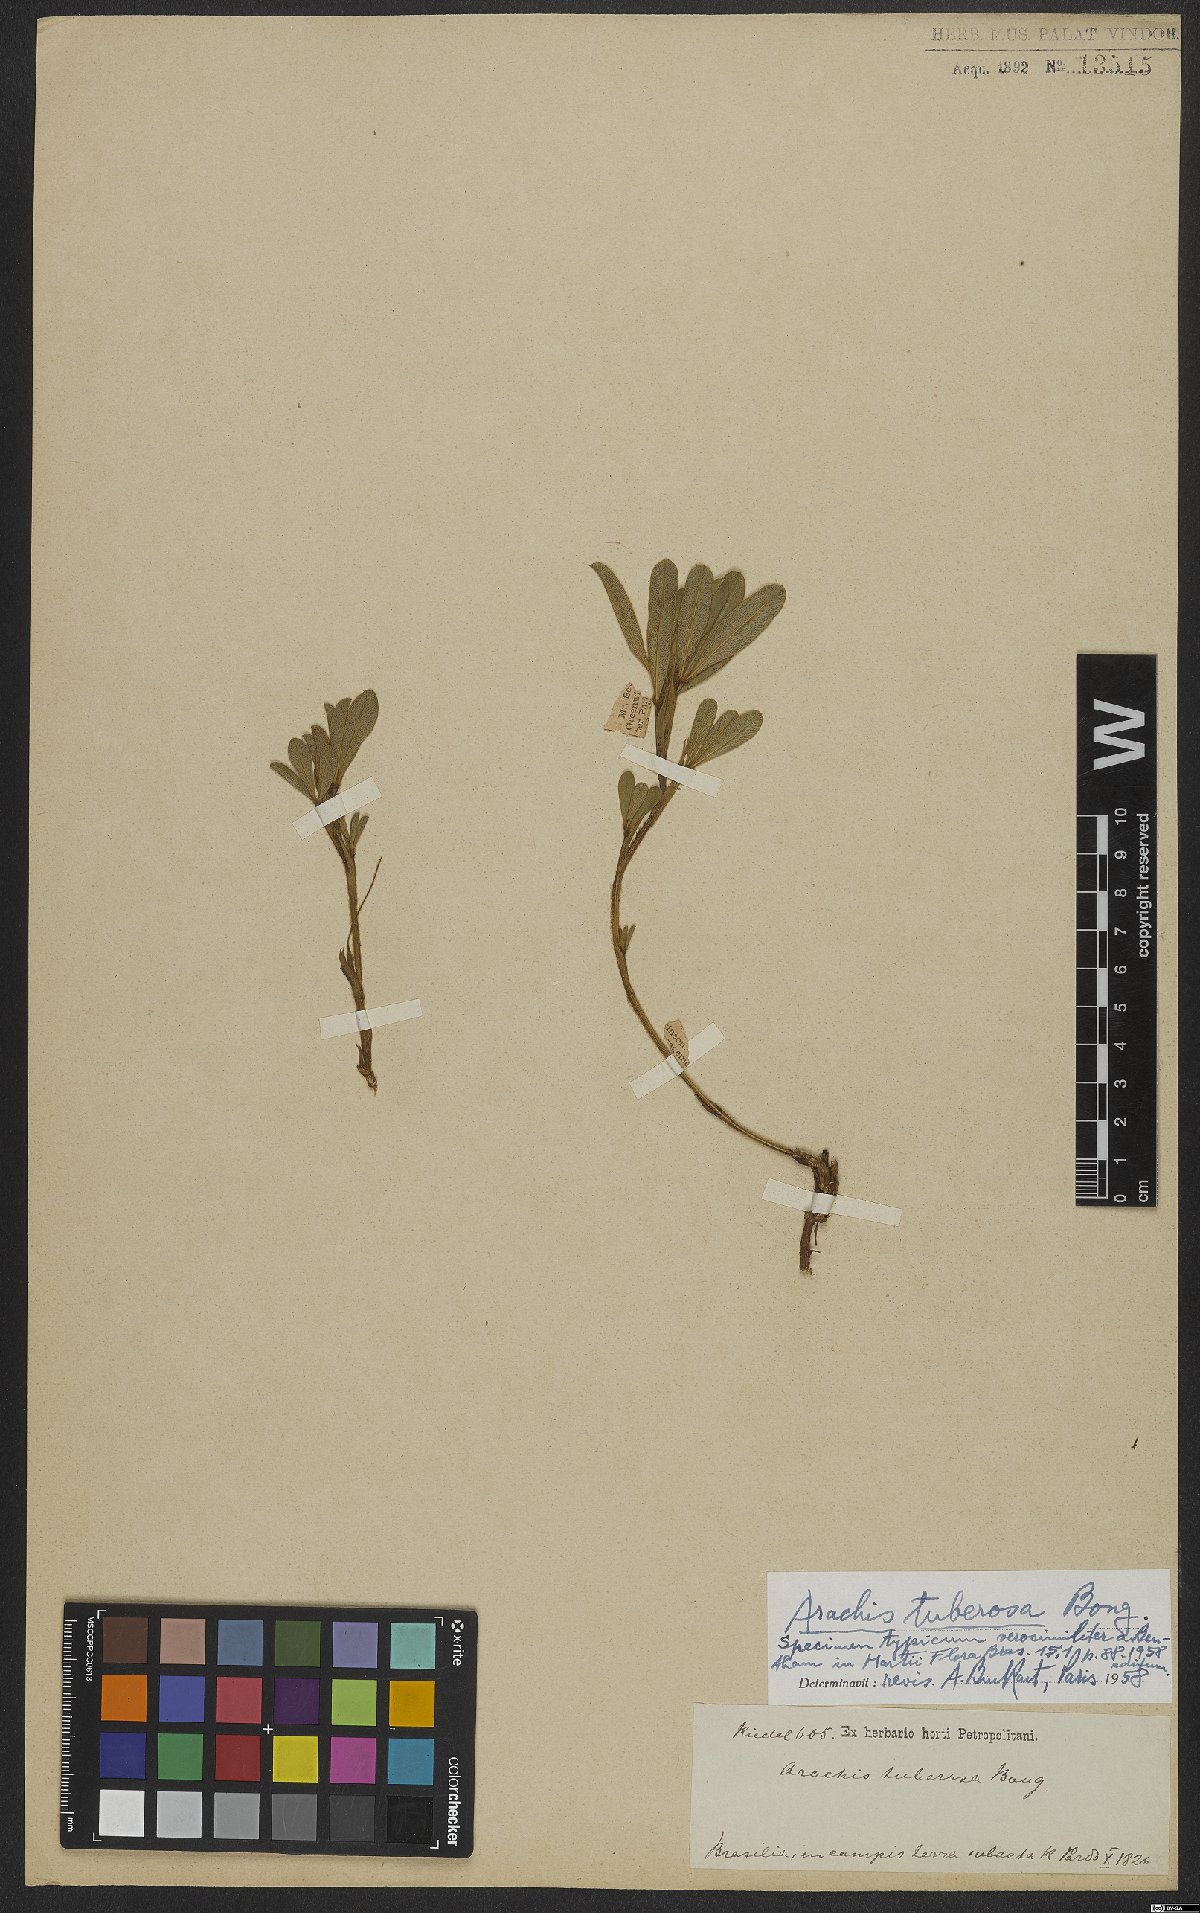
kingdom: Plantae
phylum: Tracheophyta
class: Magnoliopsida
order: Fabales
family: Fabaceae
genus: Arachis
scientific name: Arachis tuberosa
